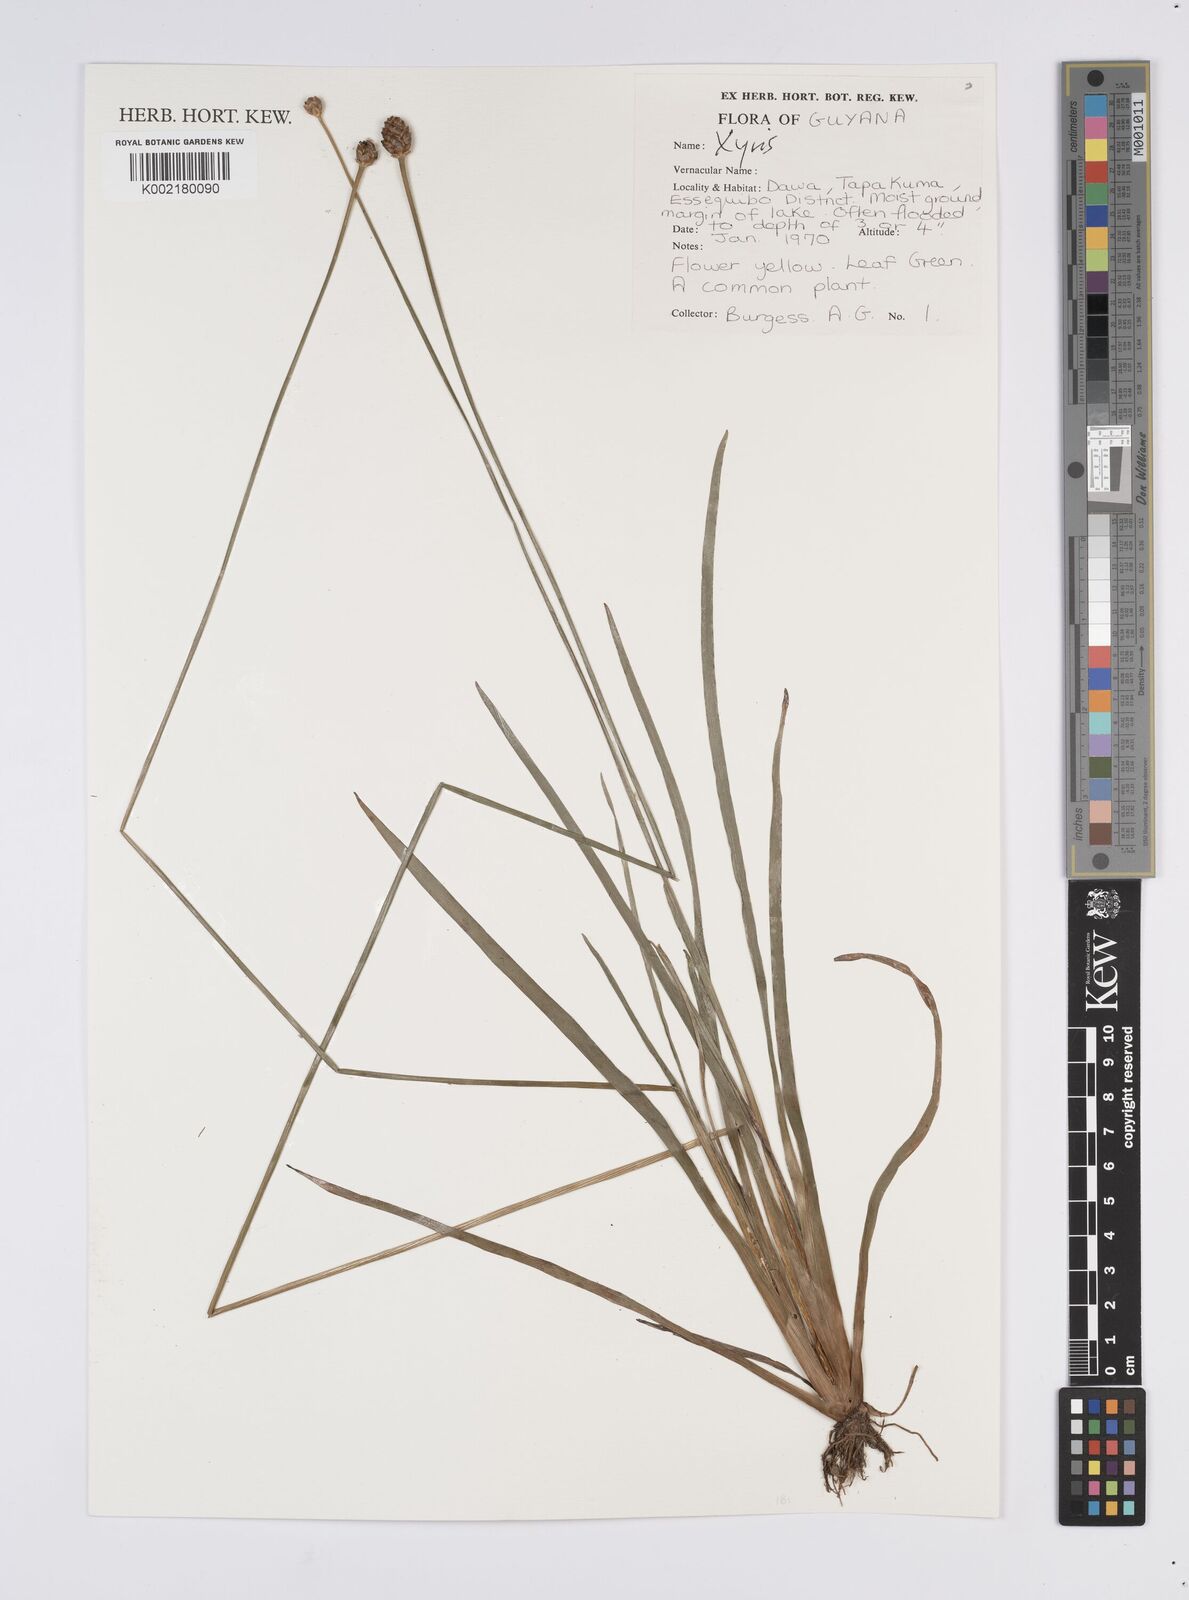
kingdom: Plantae
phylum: Tracheophyta
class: Liliopsida
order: Poales
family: Xyridaceae
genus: Xyris
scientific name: Xyris
